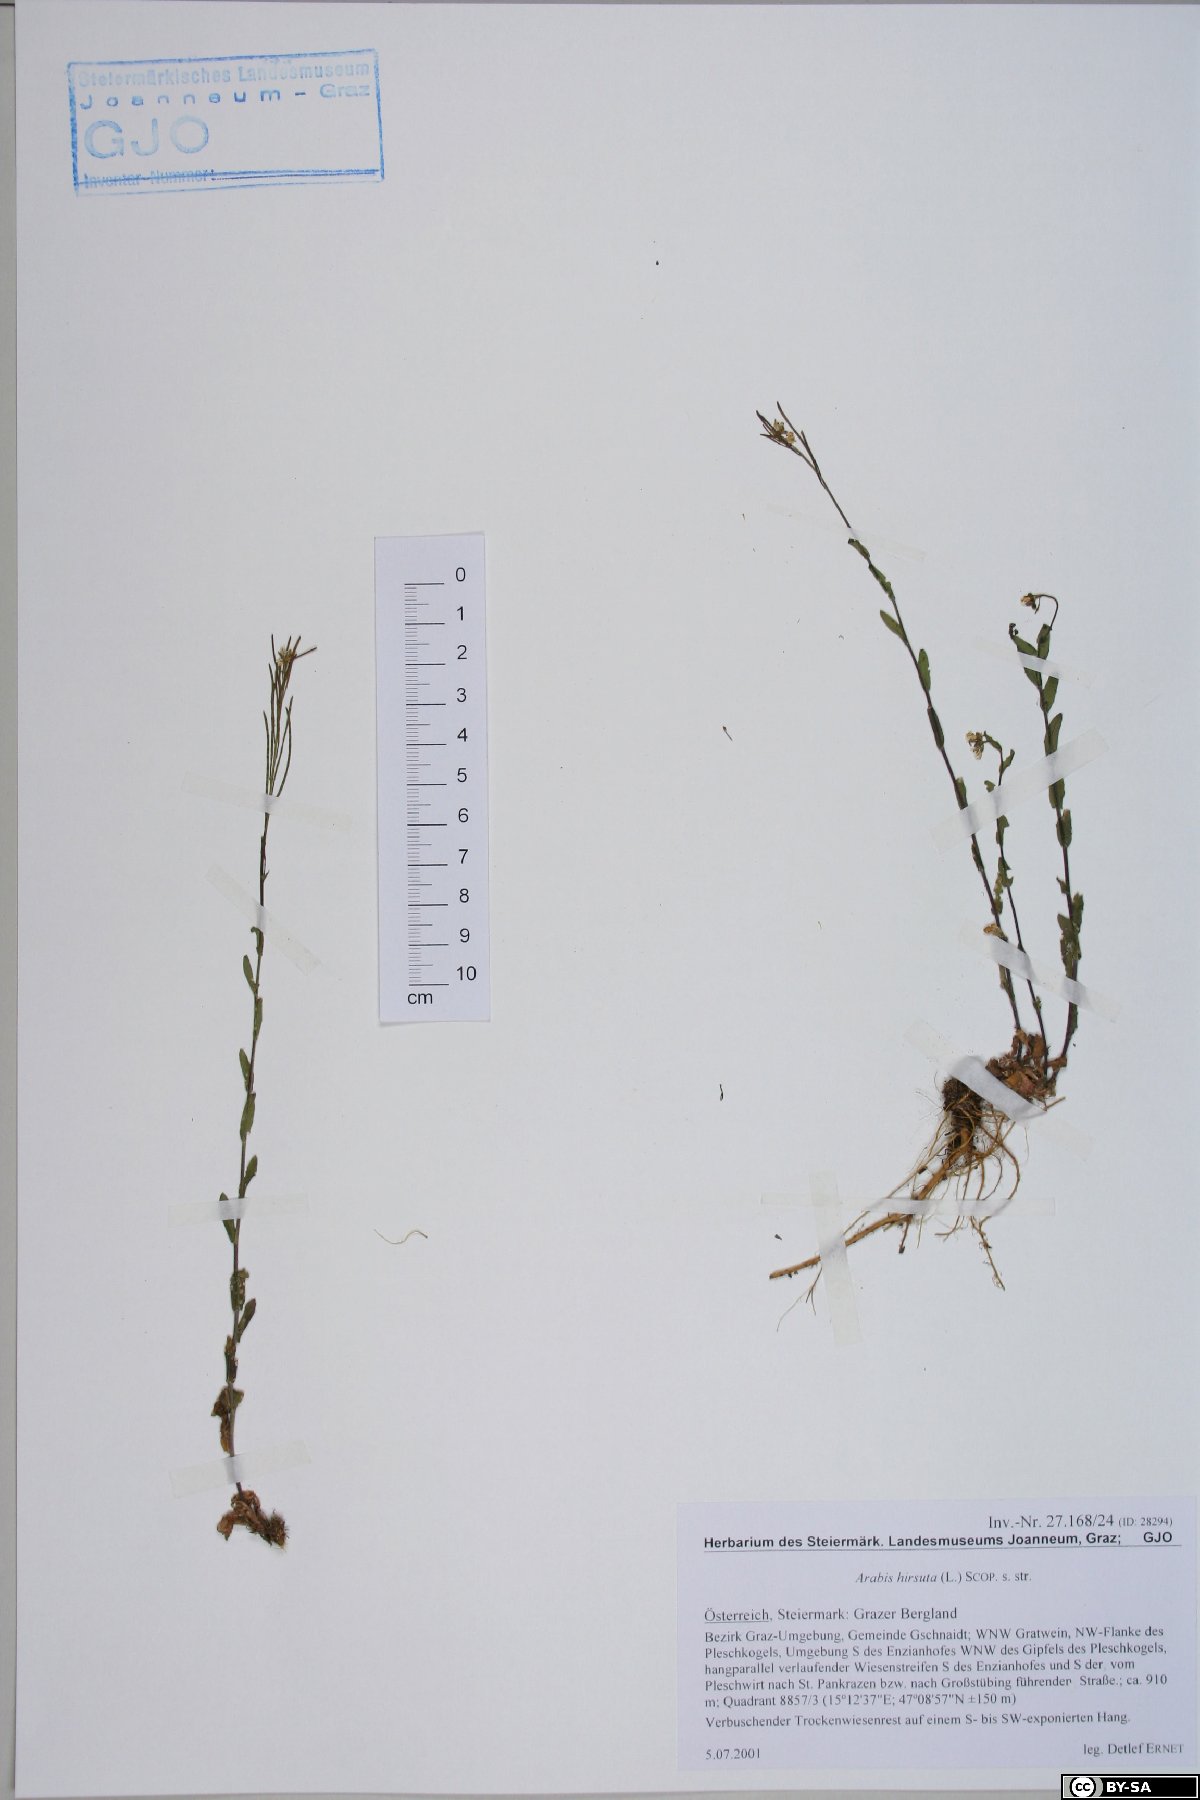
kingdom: Plantae
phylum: Tracheophyta
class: Magnoliopsida
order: Brassicales
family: Brassicaceae
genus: Arabis
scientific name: Arabis hirsuta
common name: Hairy rock-cress
